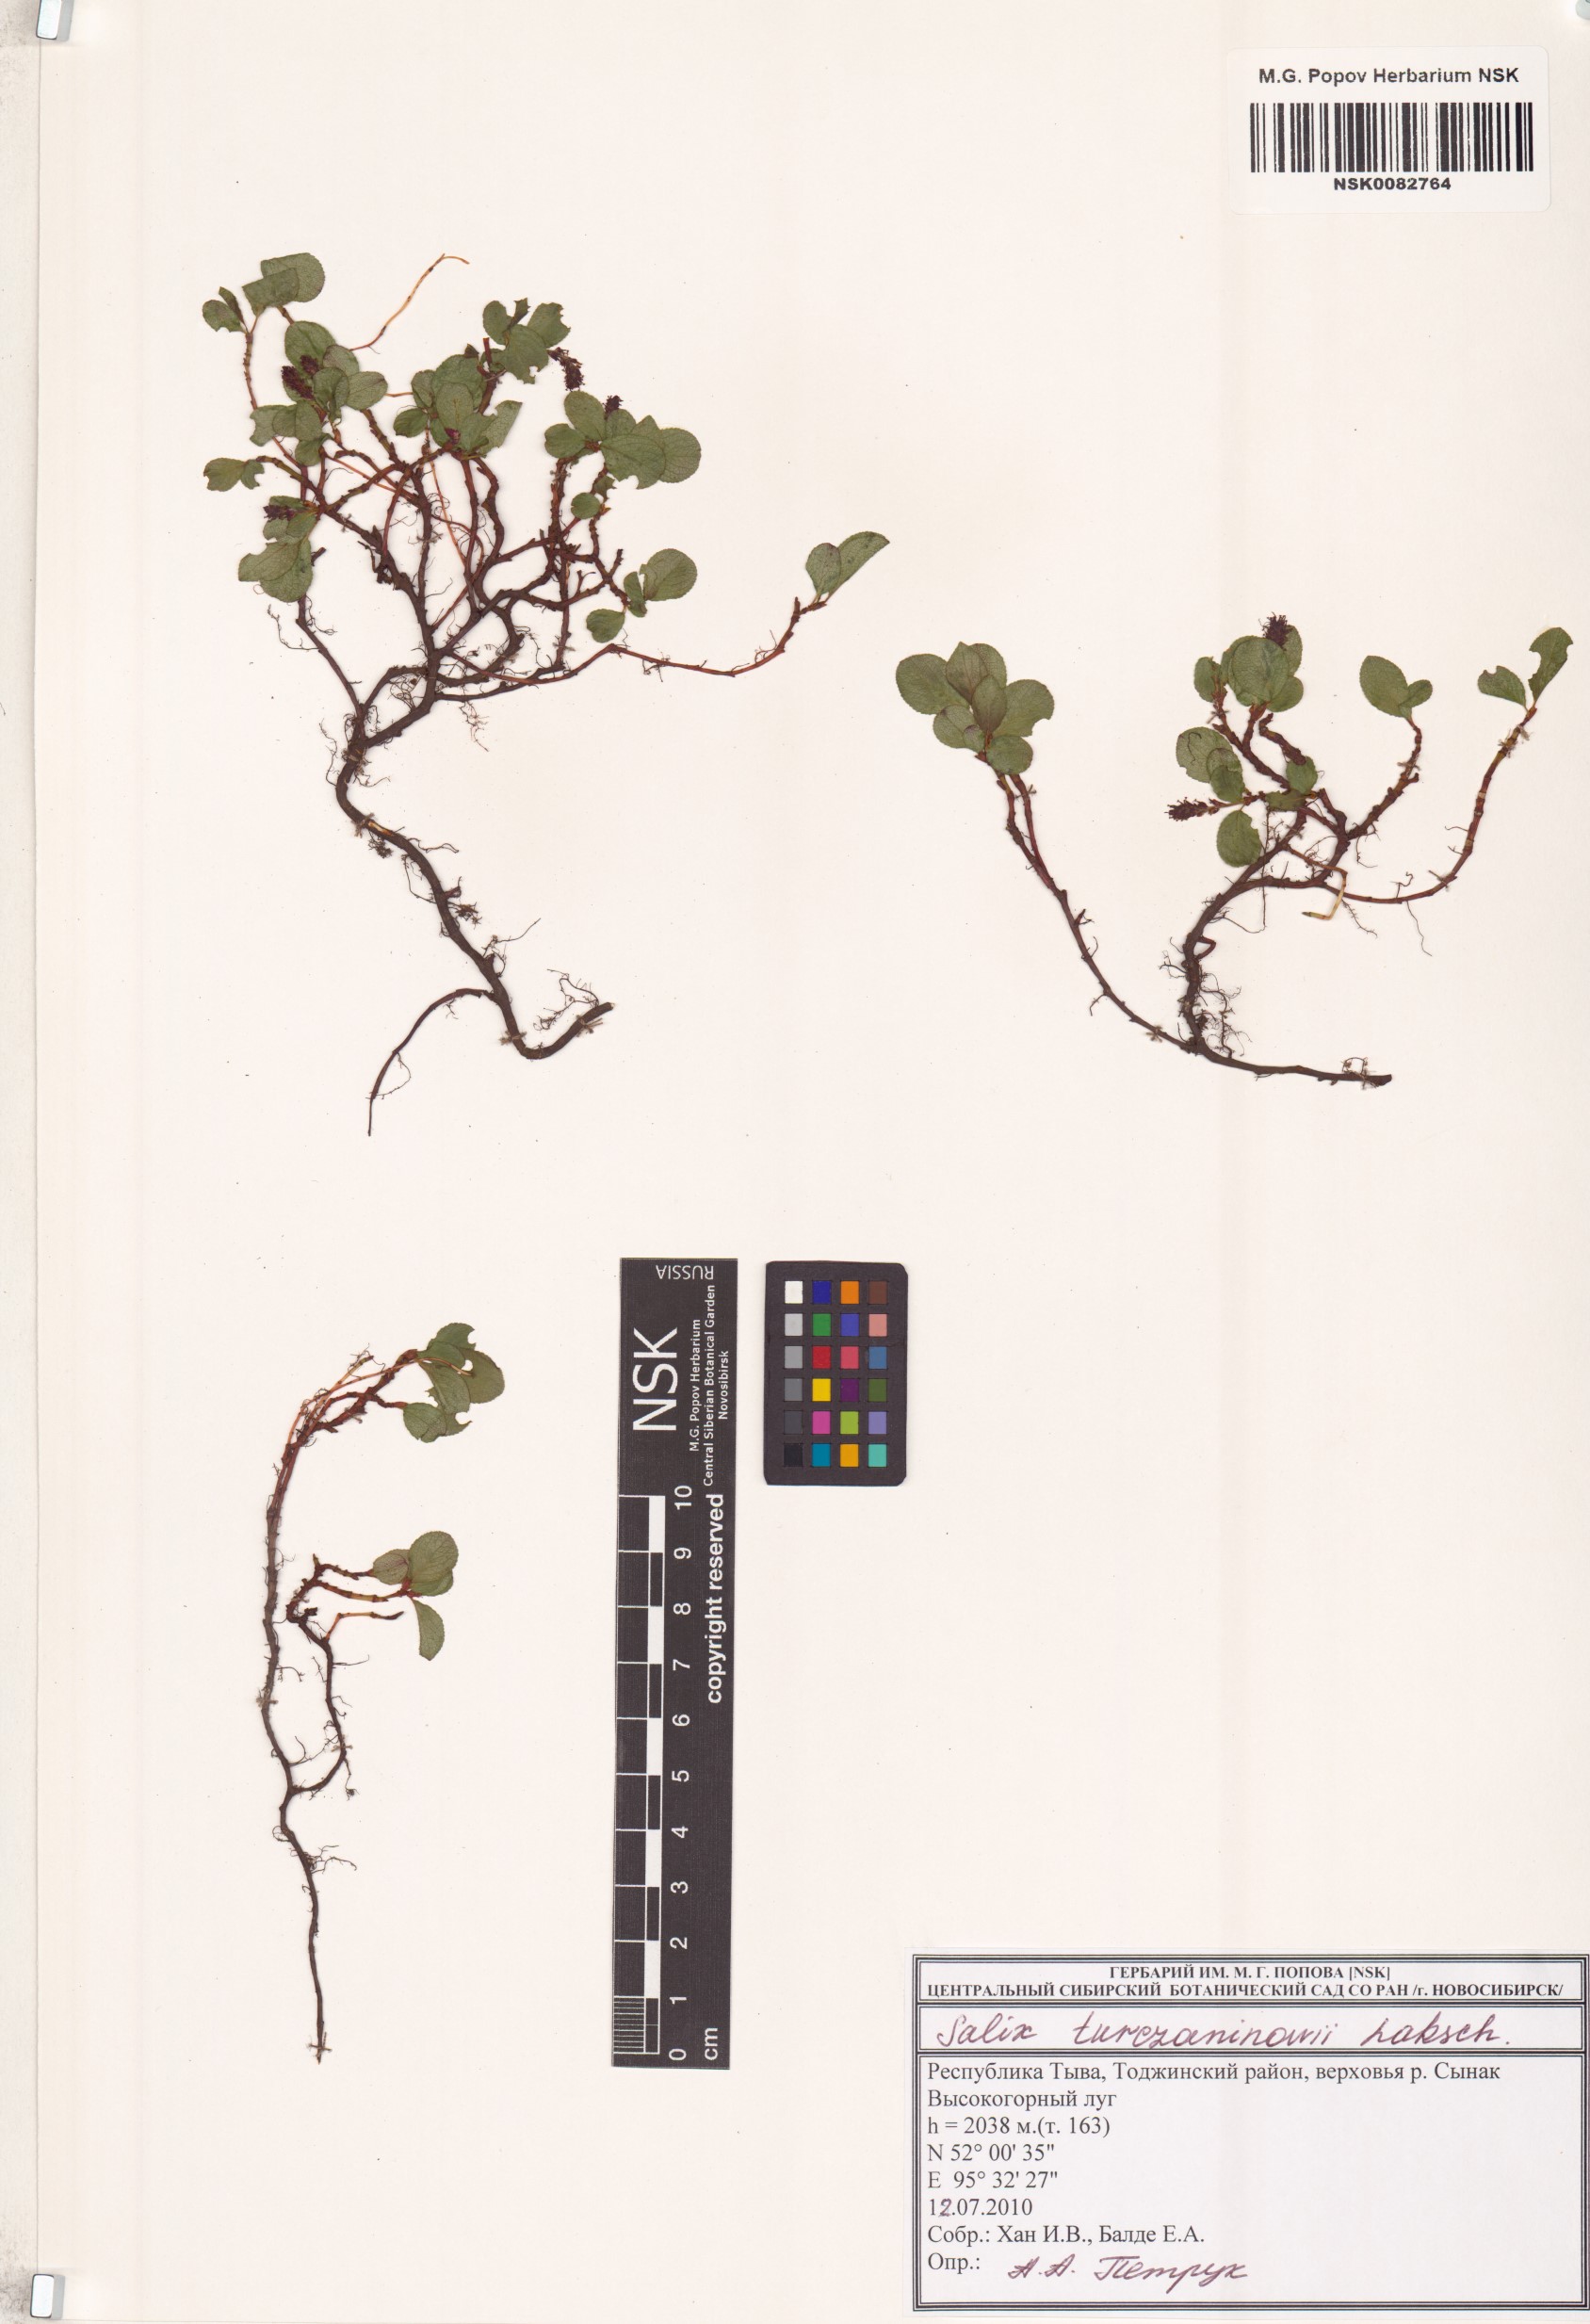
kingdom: Plantae
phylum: Tracheophyta
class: Magnoliopsida
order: Malpighiales
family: Salicaceae
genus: Salix
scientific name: Salix turczaninowii
